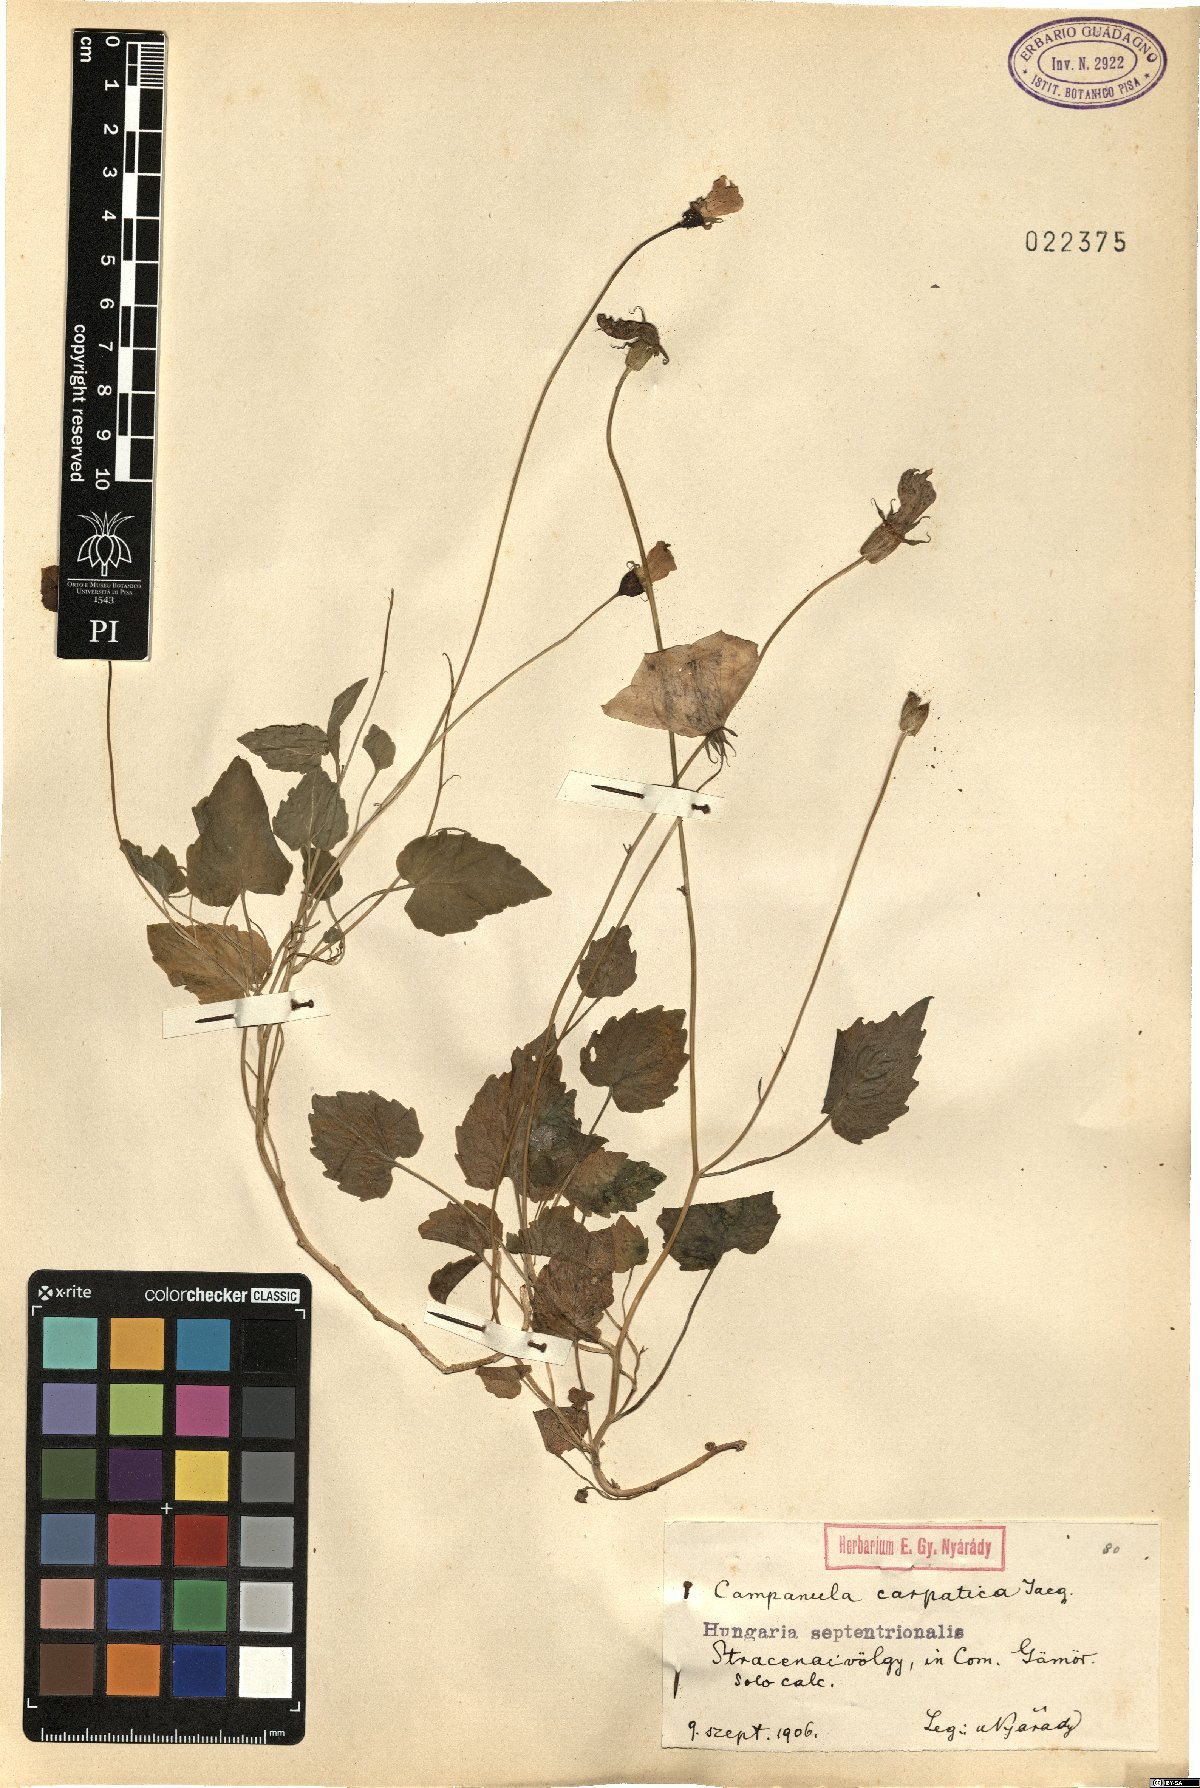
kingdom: Plantae
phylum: Tracheophyta
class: Magnoliopsida
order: Asterales
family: Campanulaceae
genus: Campanula
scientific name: Campanula carpatica
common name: Tussock bellflower
